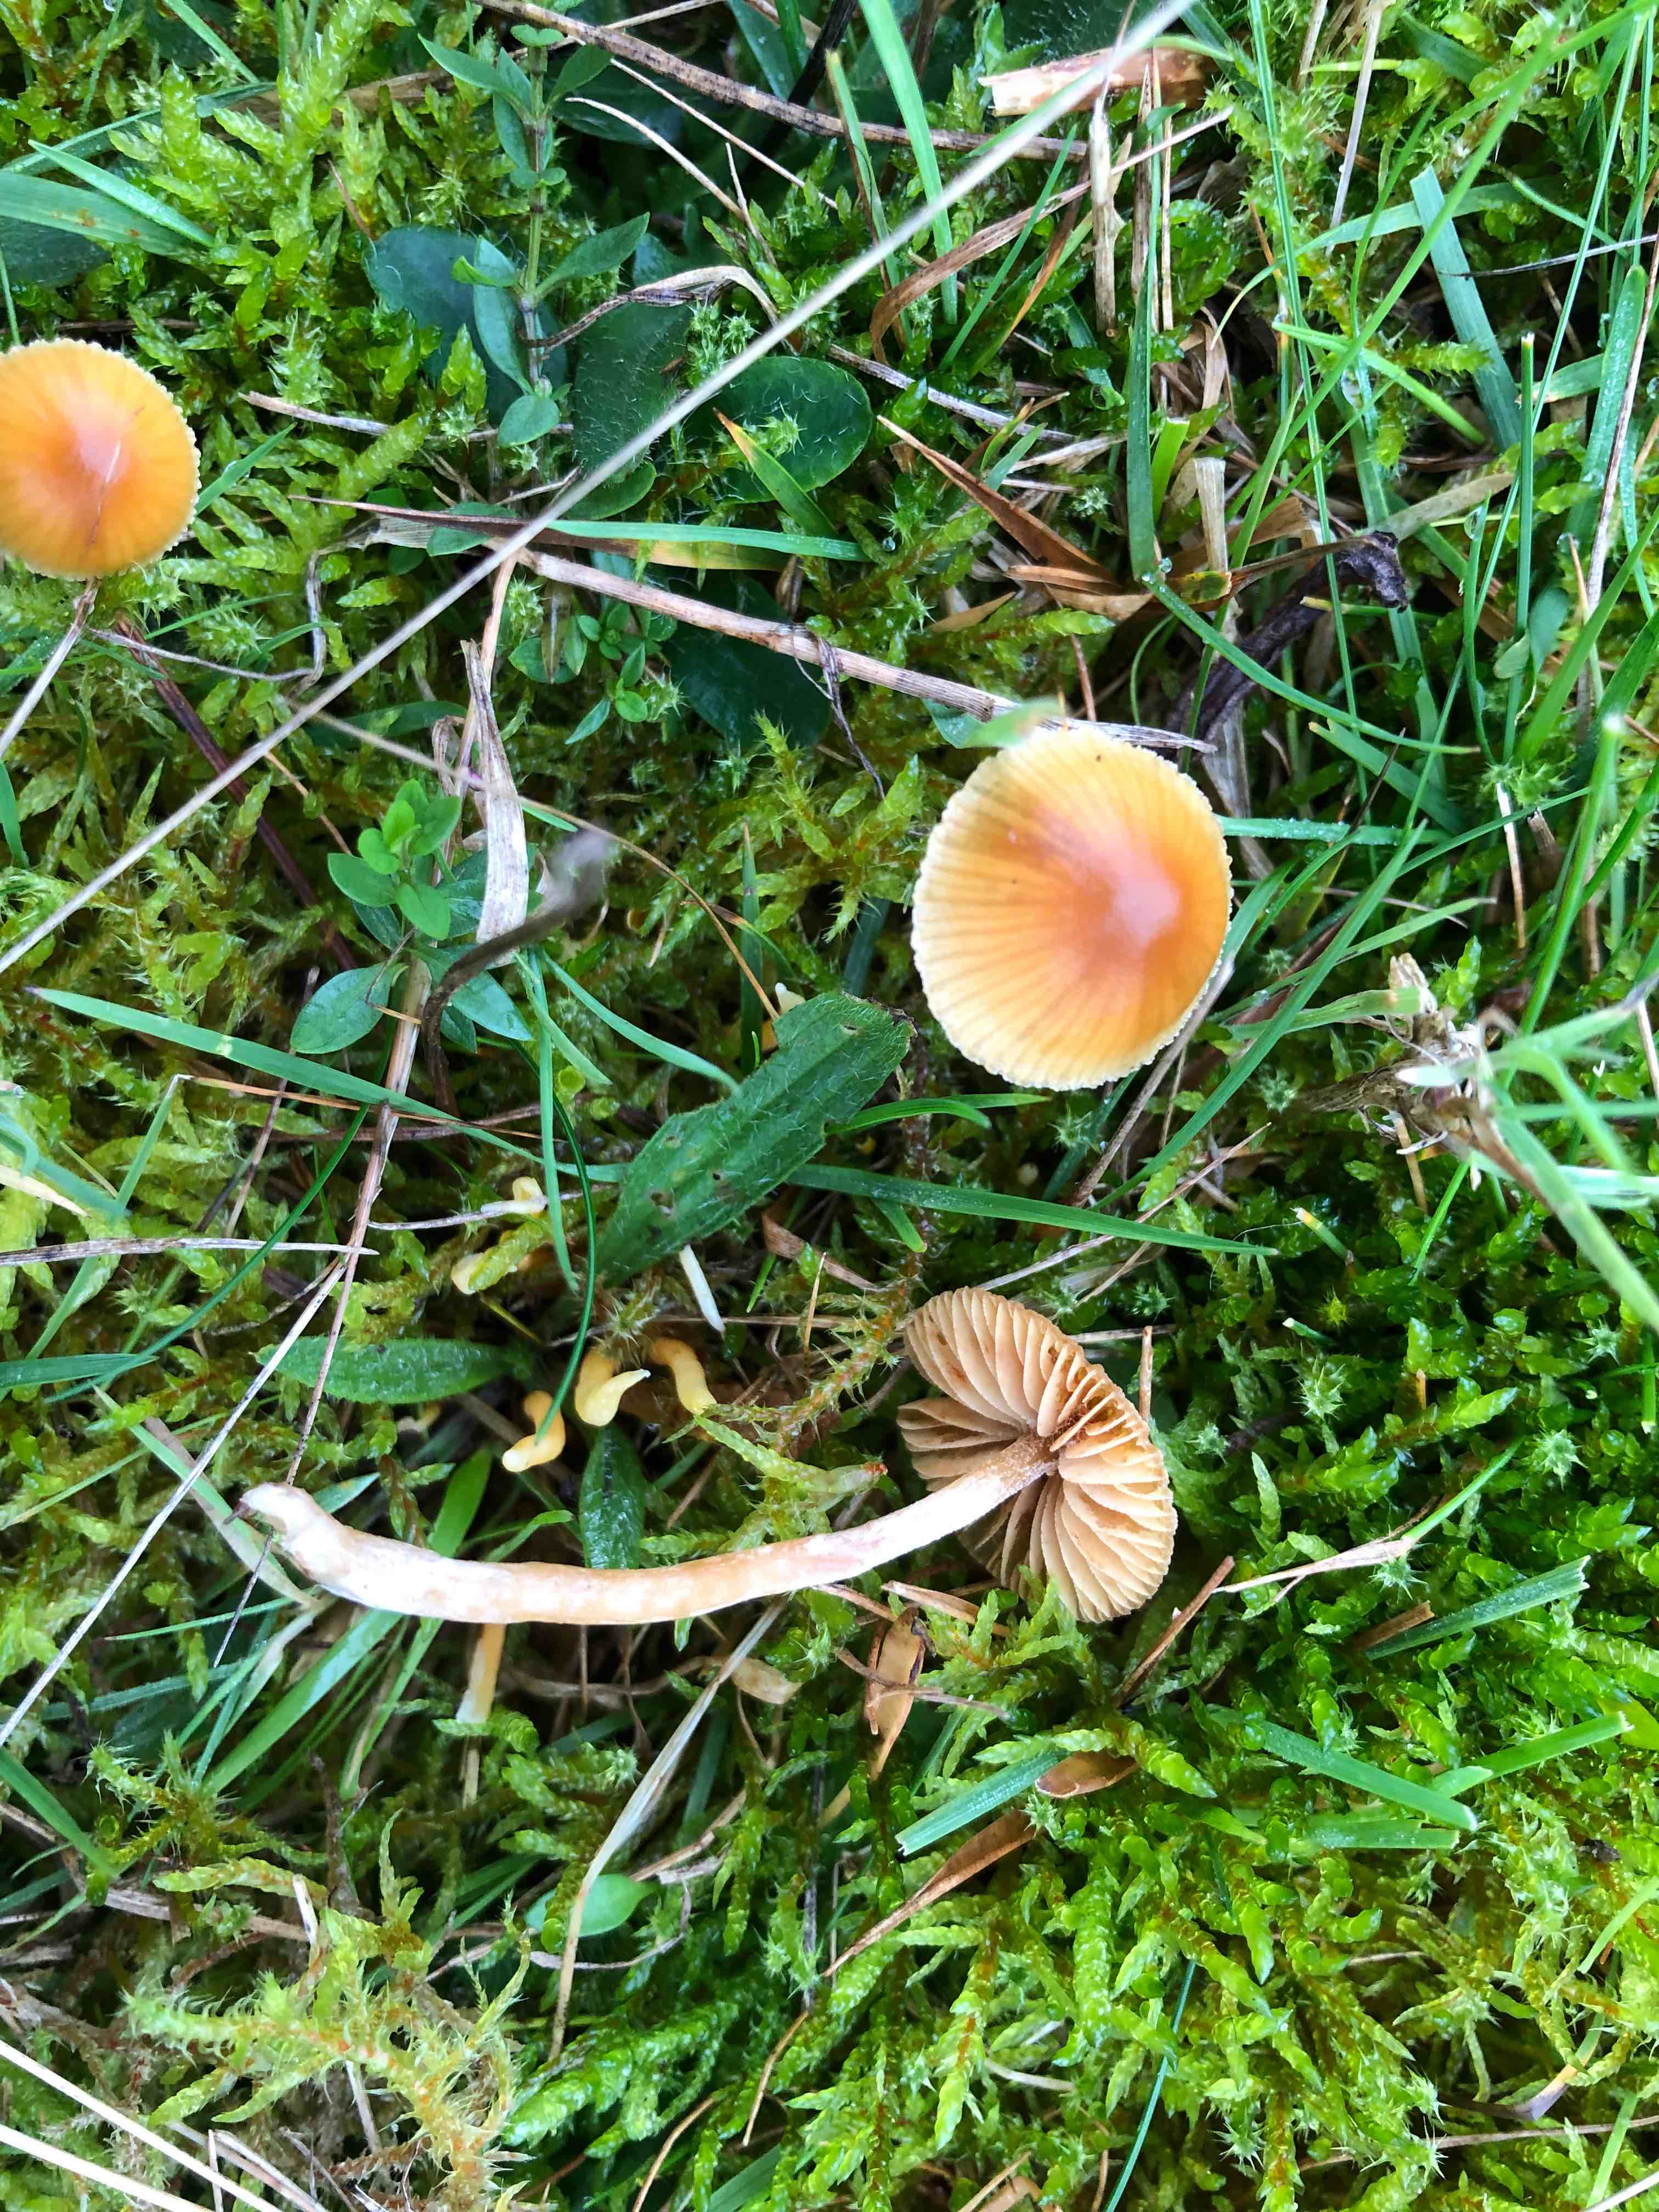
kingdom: Fungi
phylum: Basidiomycota
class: Agaricomycetes
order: Agaricales
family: Hymenogastraceae
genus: Galerina
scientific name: Galerina
